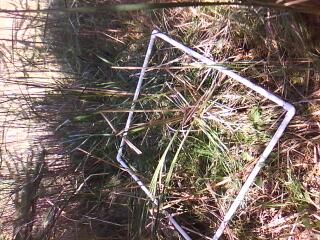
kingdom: Plantae
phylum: Tracheophyta
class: Magnoliopsida
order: Asterales
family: Campanulaceae
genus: Palustricodon
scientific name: Palustricodon aparinoides
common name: Bedstraw bellflower
